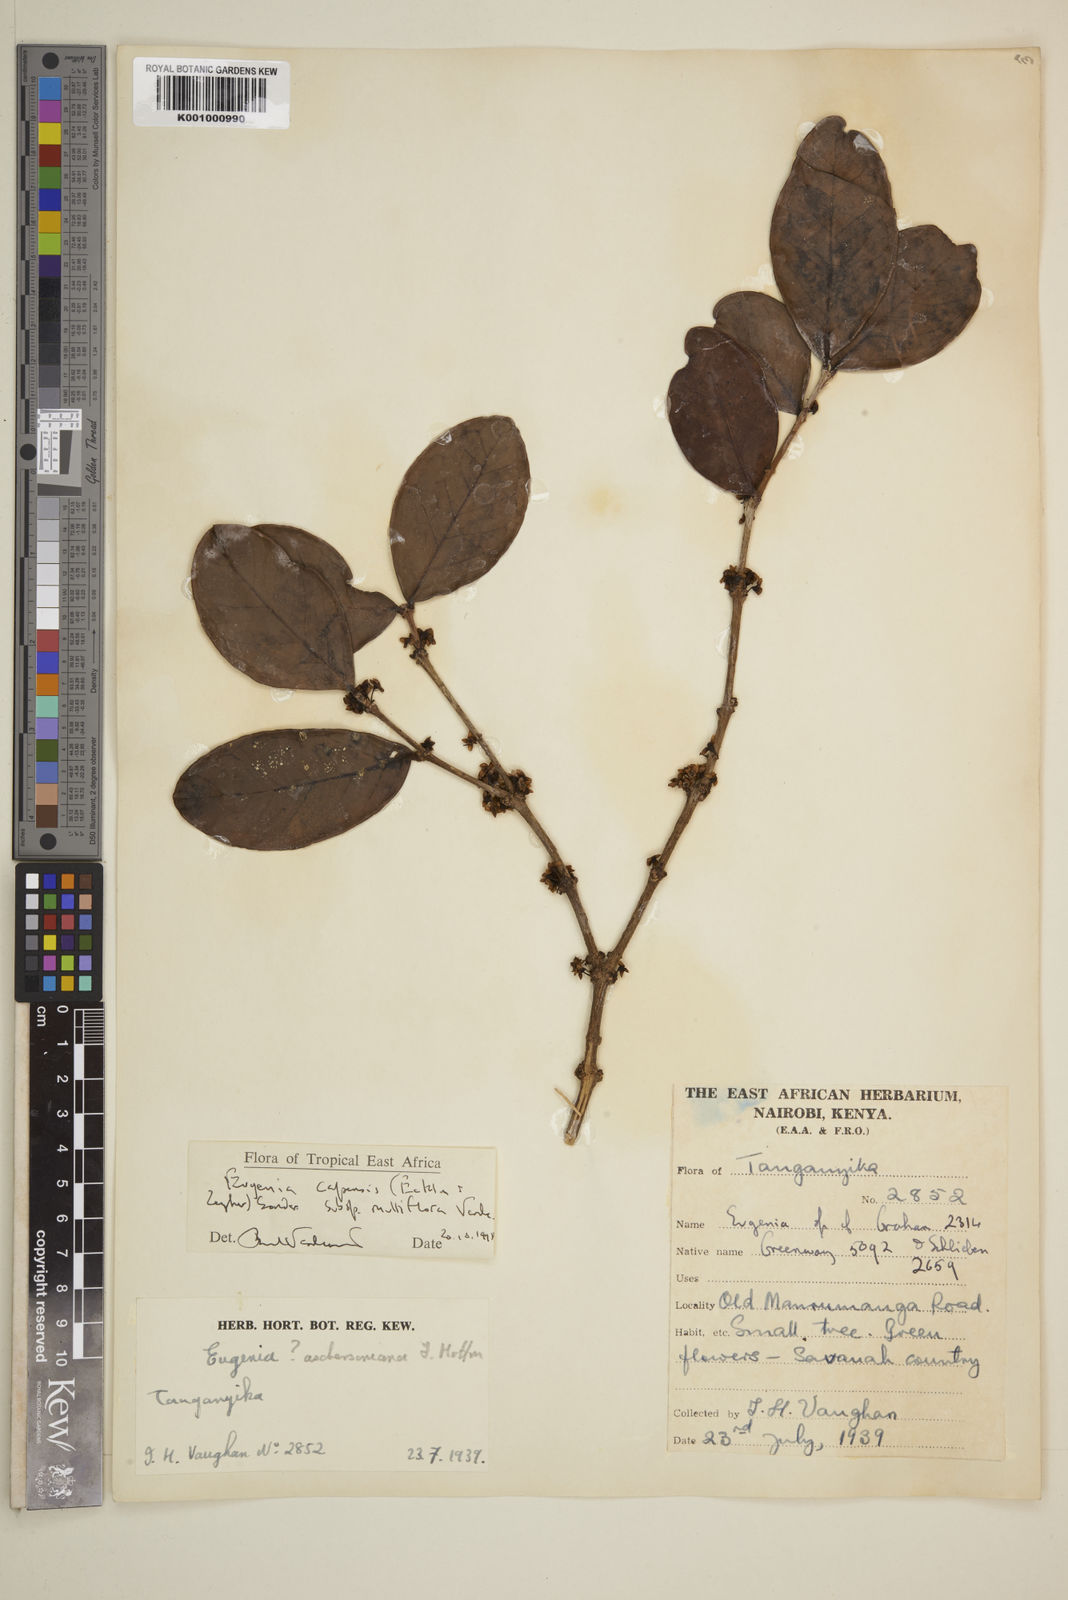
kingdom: Plantae
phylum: Tracheophyta
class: Magnoliopsida
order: Myrtales
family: Myrtaceae
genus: Eugenia
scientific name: Eugenia capensis
